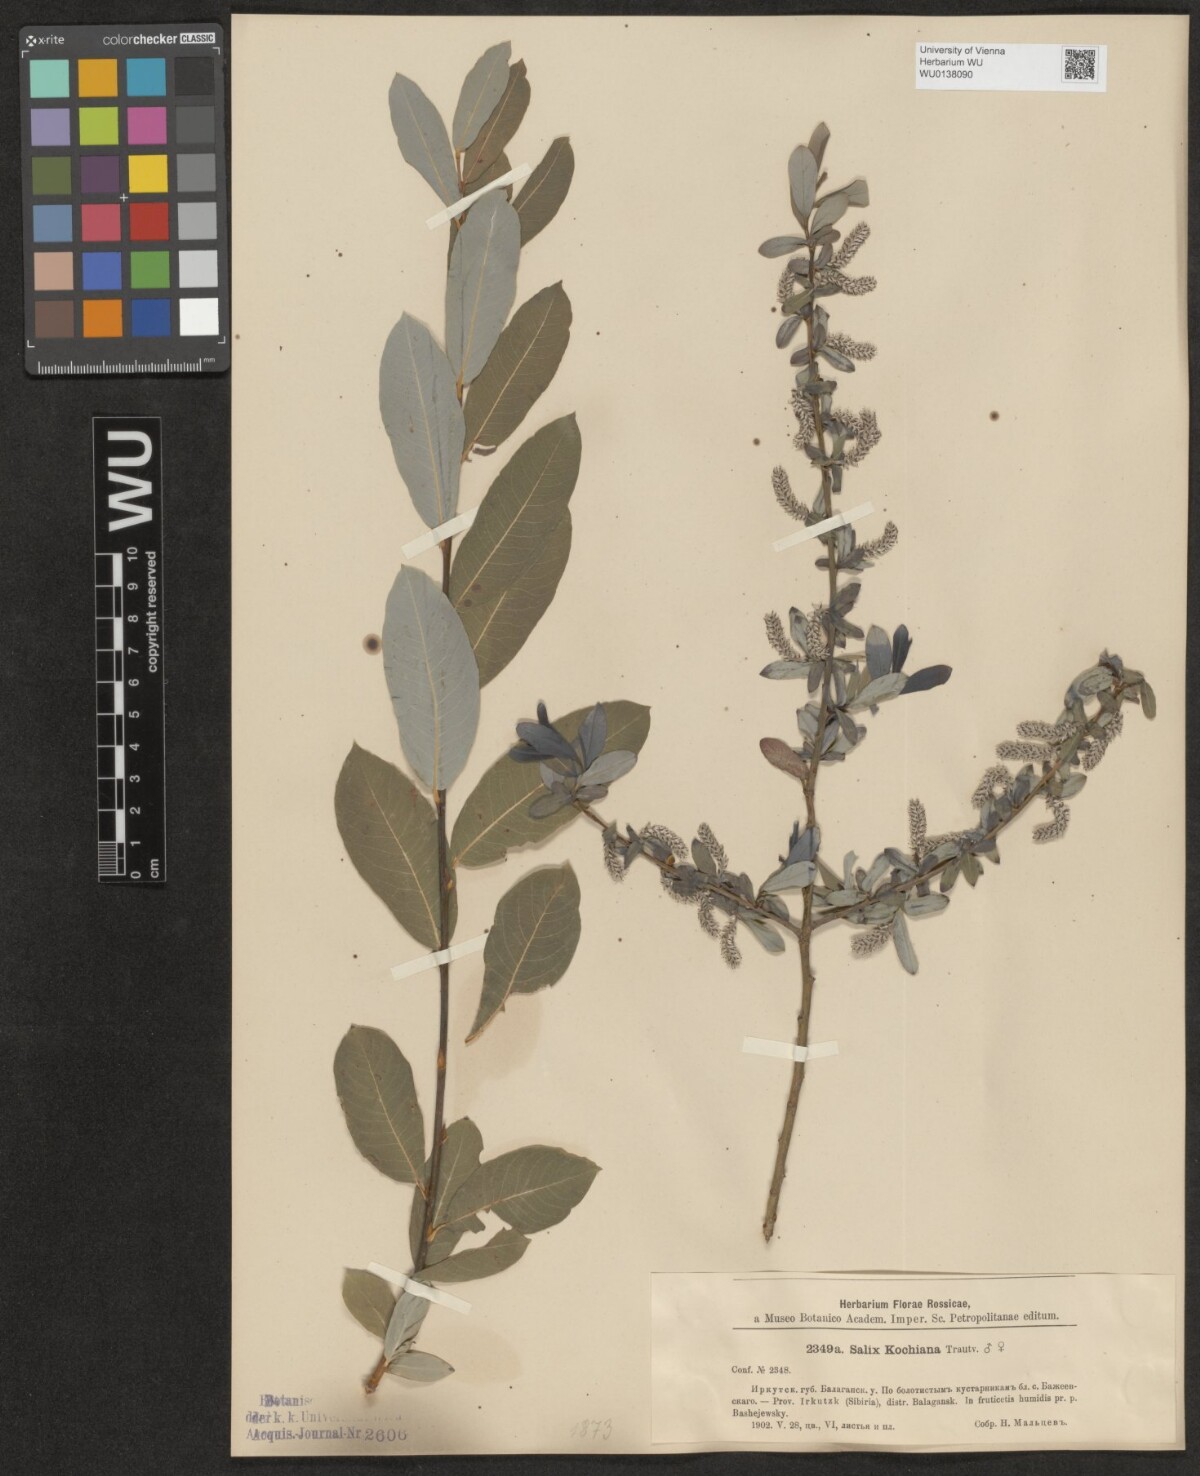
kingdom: Plantae
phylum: Tracheophyta
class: Magnoliopsida
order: Malpighiales
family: Salicaceae
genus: Salix
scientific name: Salix kochiana
